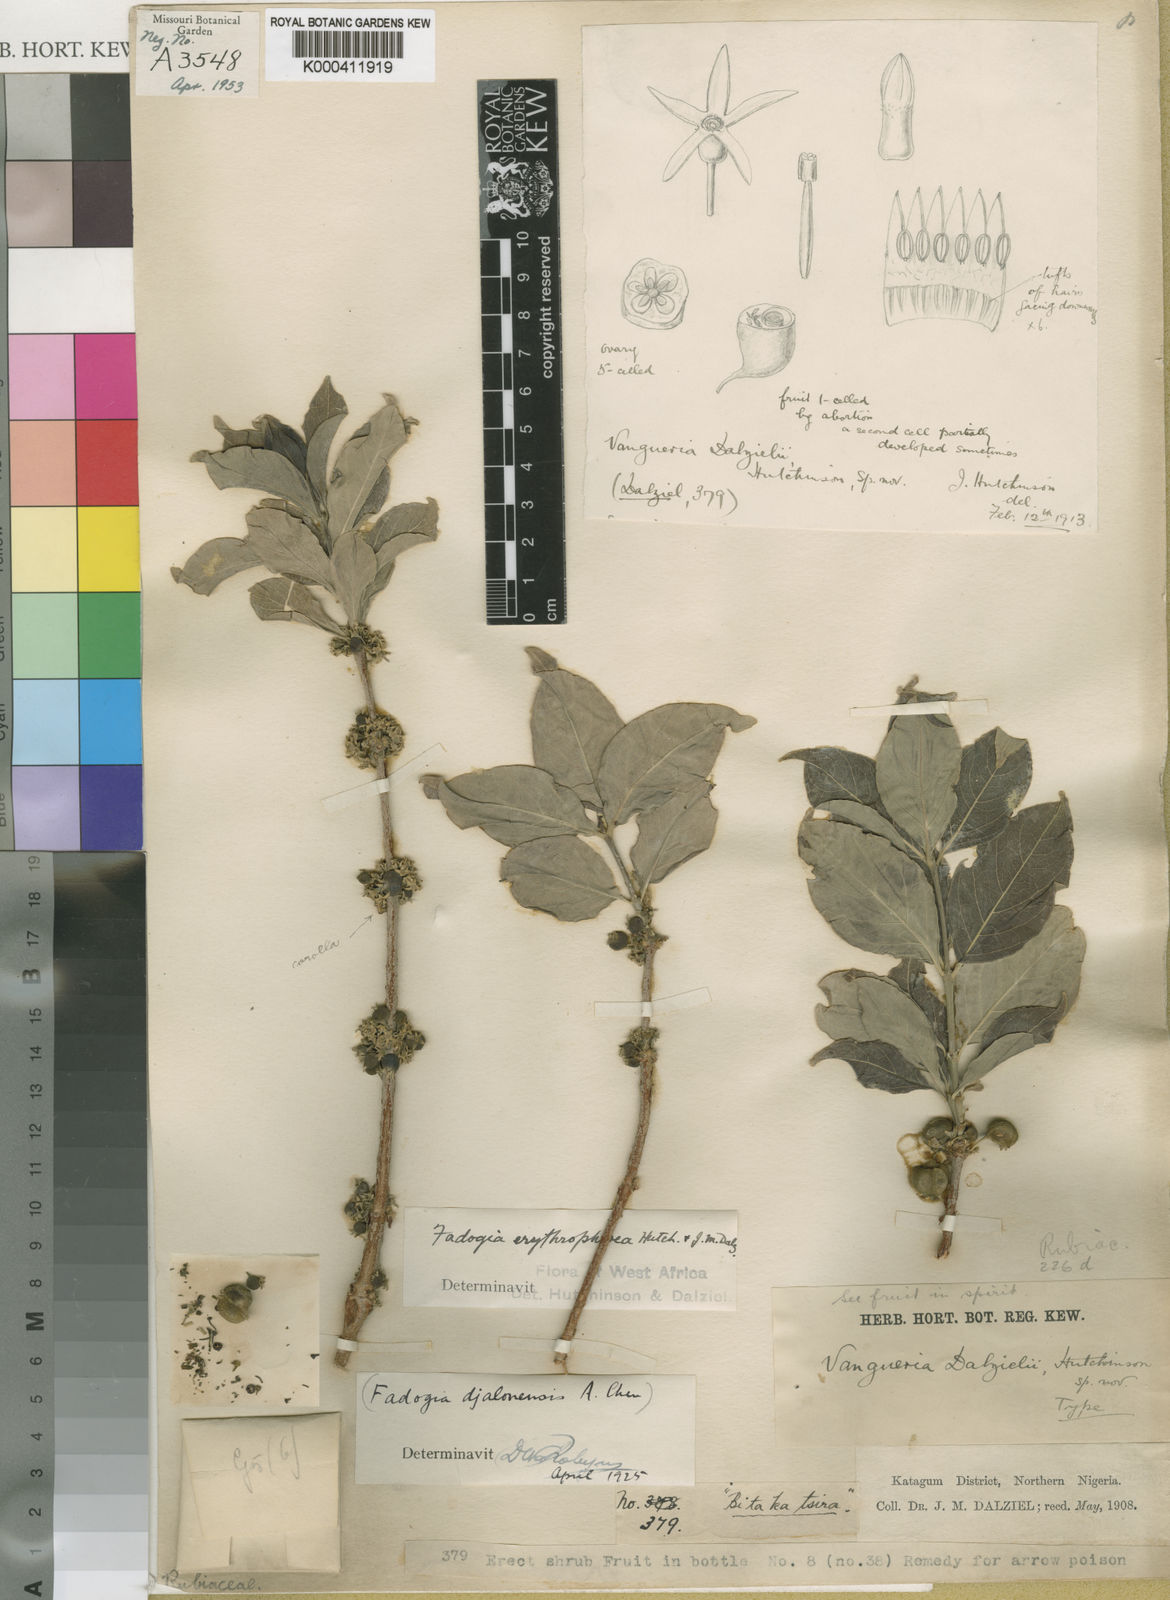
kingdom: Plantae
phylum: Tracheophyta
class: Magnoliopsida
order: Gentianales
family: Rubiaceae
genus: Fadogia
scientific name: Fadogia erythrophloea
